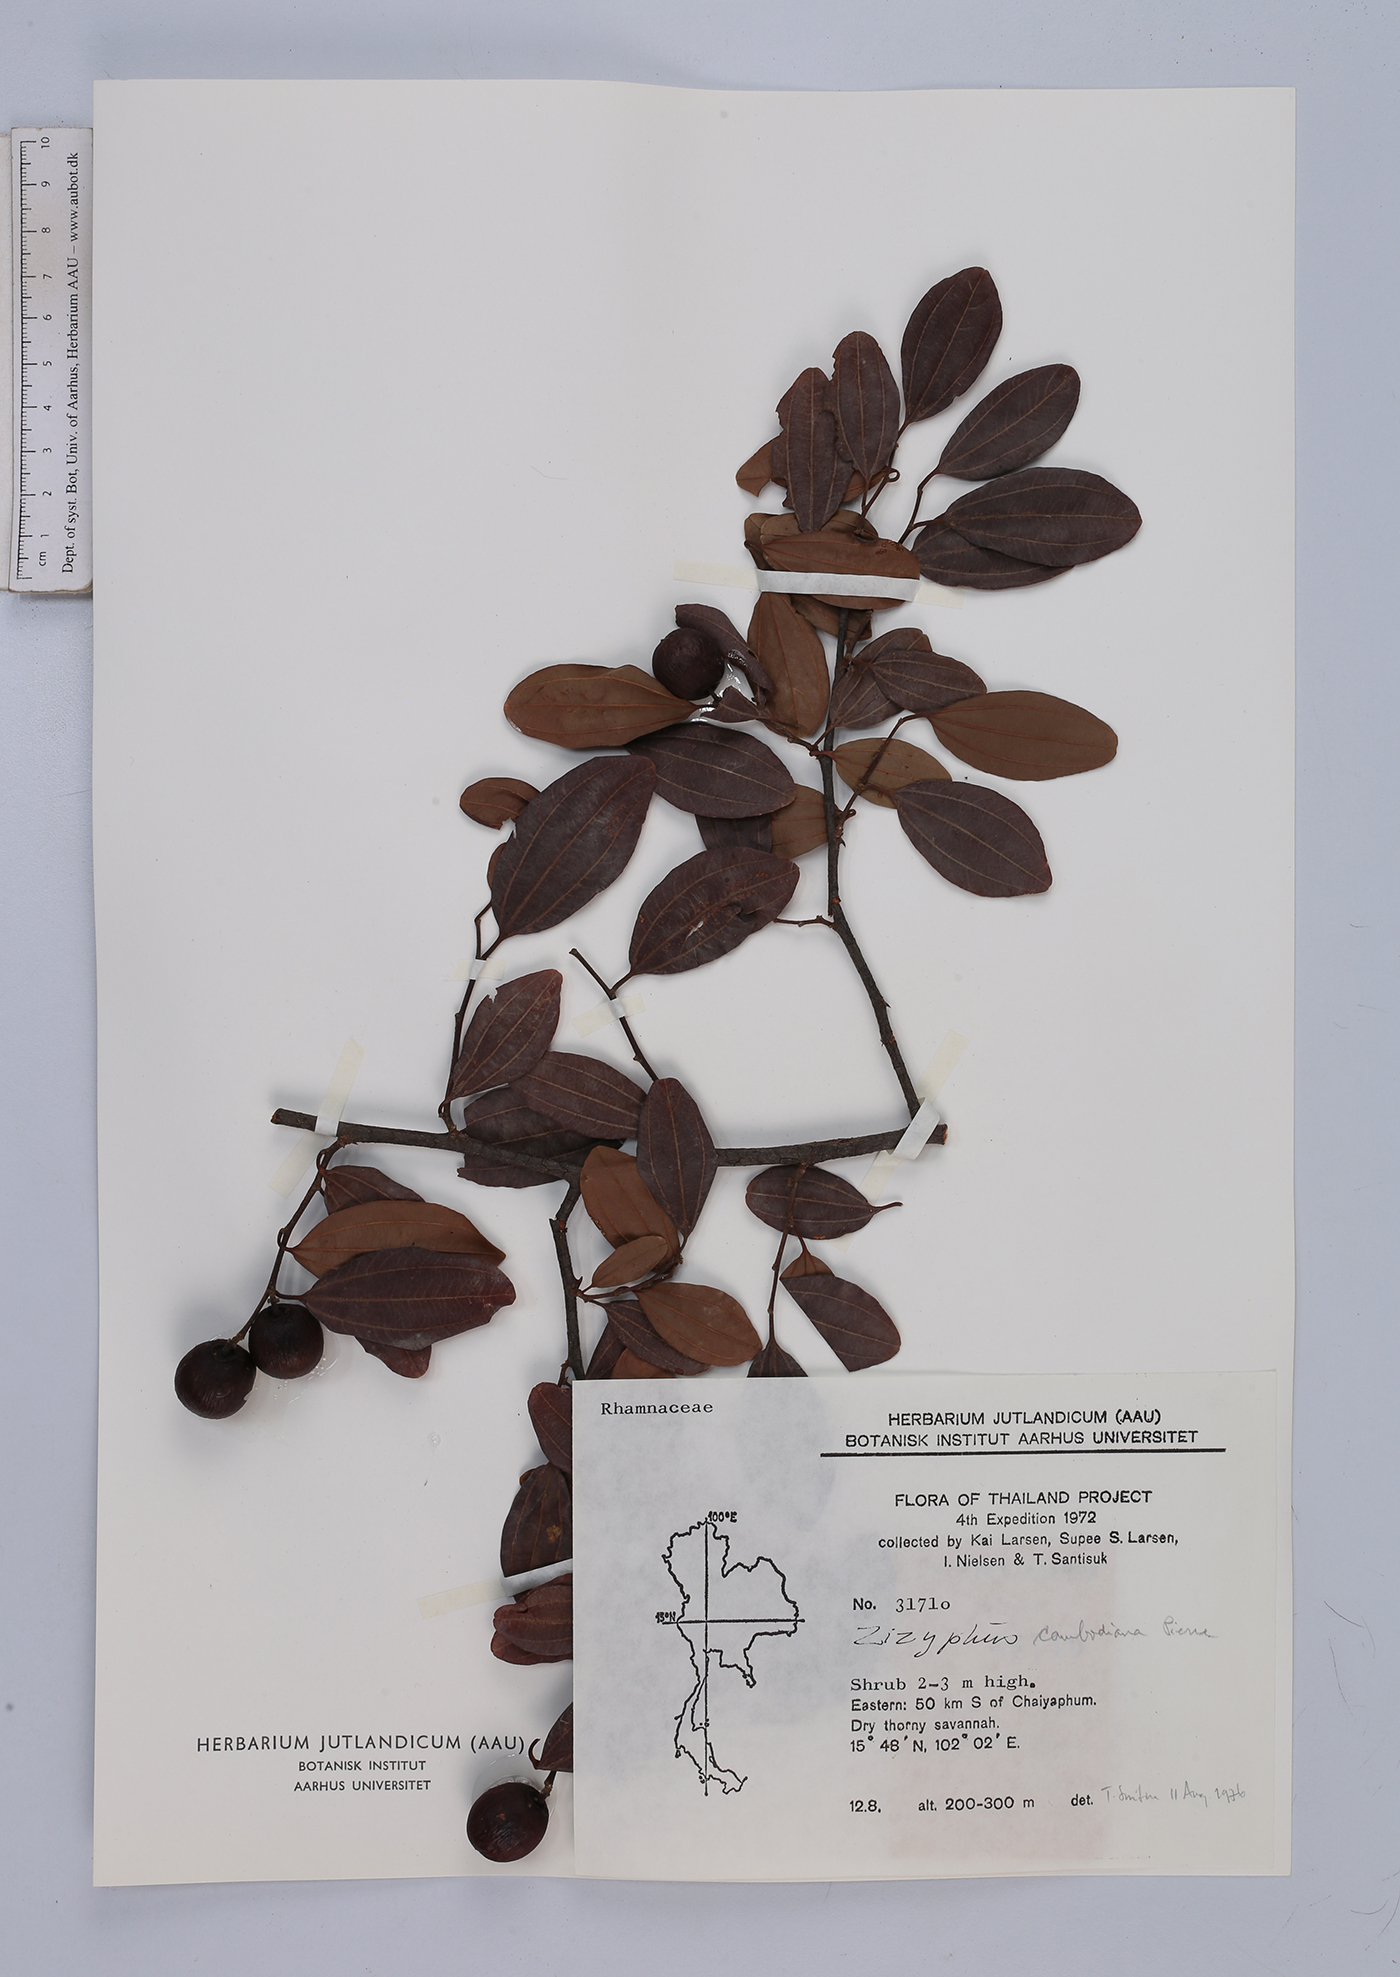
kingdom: Plantae
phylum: Tracheophyta
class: Magnoliopsida
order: Rosales
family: Rhamnaceae
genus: Ziziphus
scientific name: Ziziphus cambodiana
